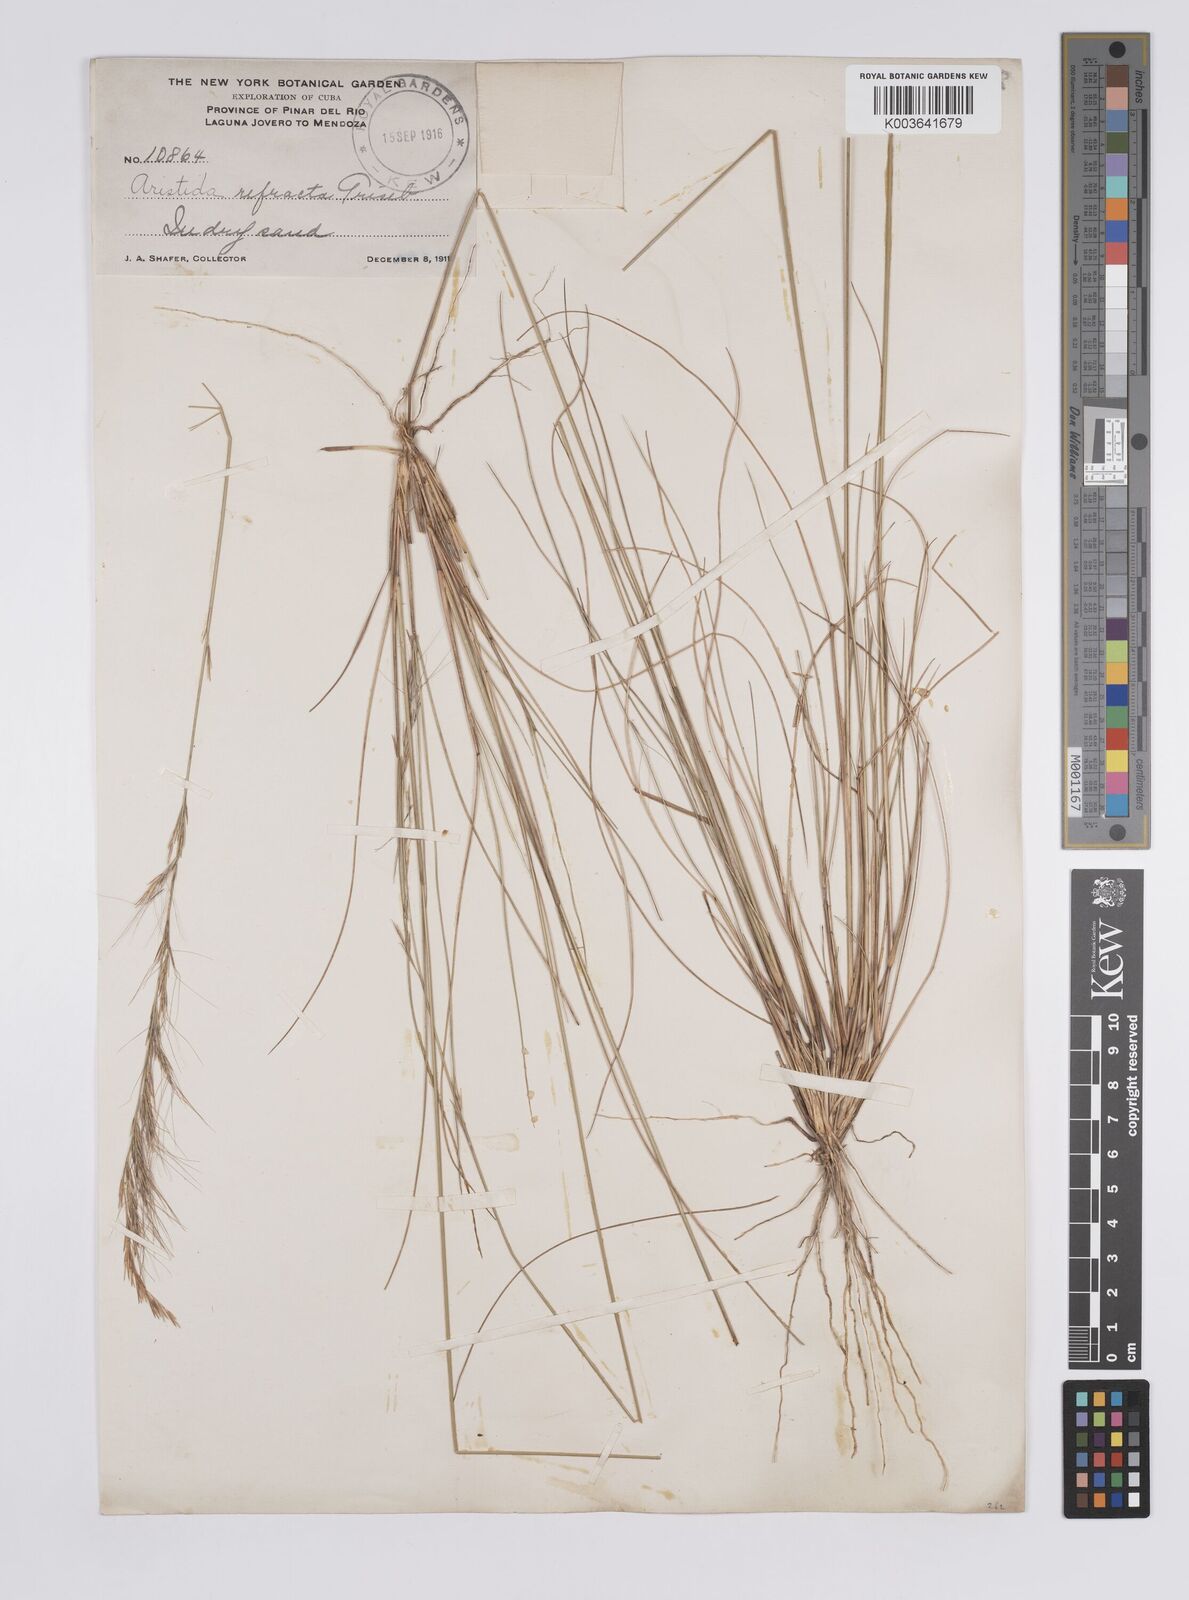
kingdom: Plantae
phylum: Tracheophyta
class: Liliopsida
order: Poales
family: Poaceae
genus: Aristida
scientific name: Aristida refracta
